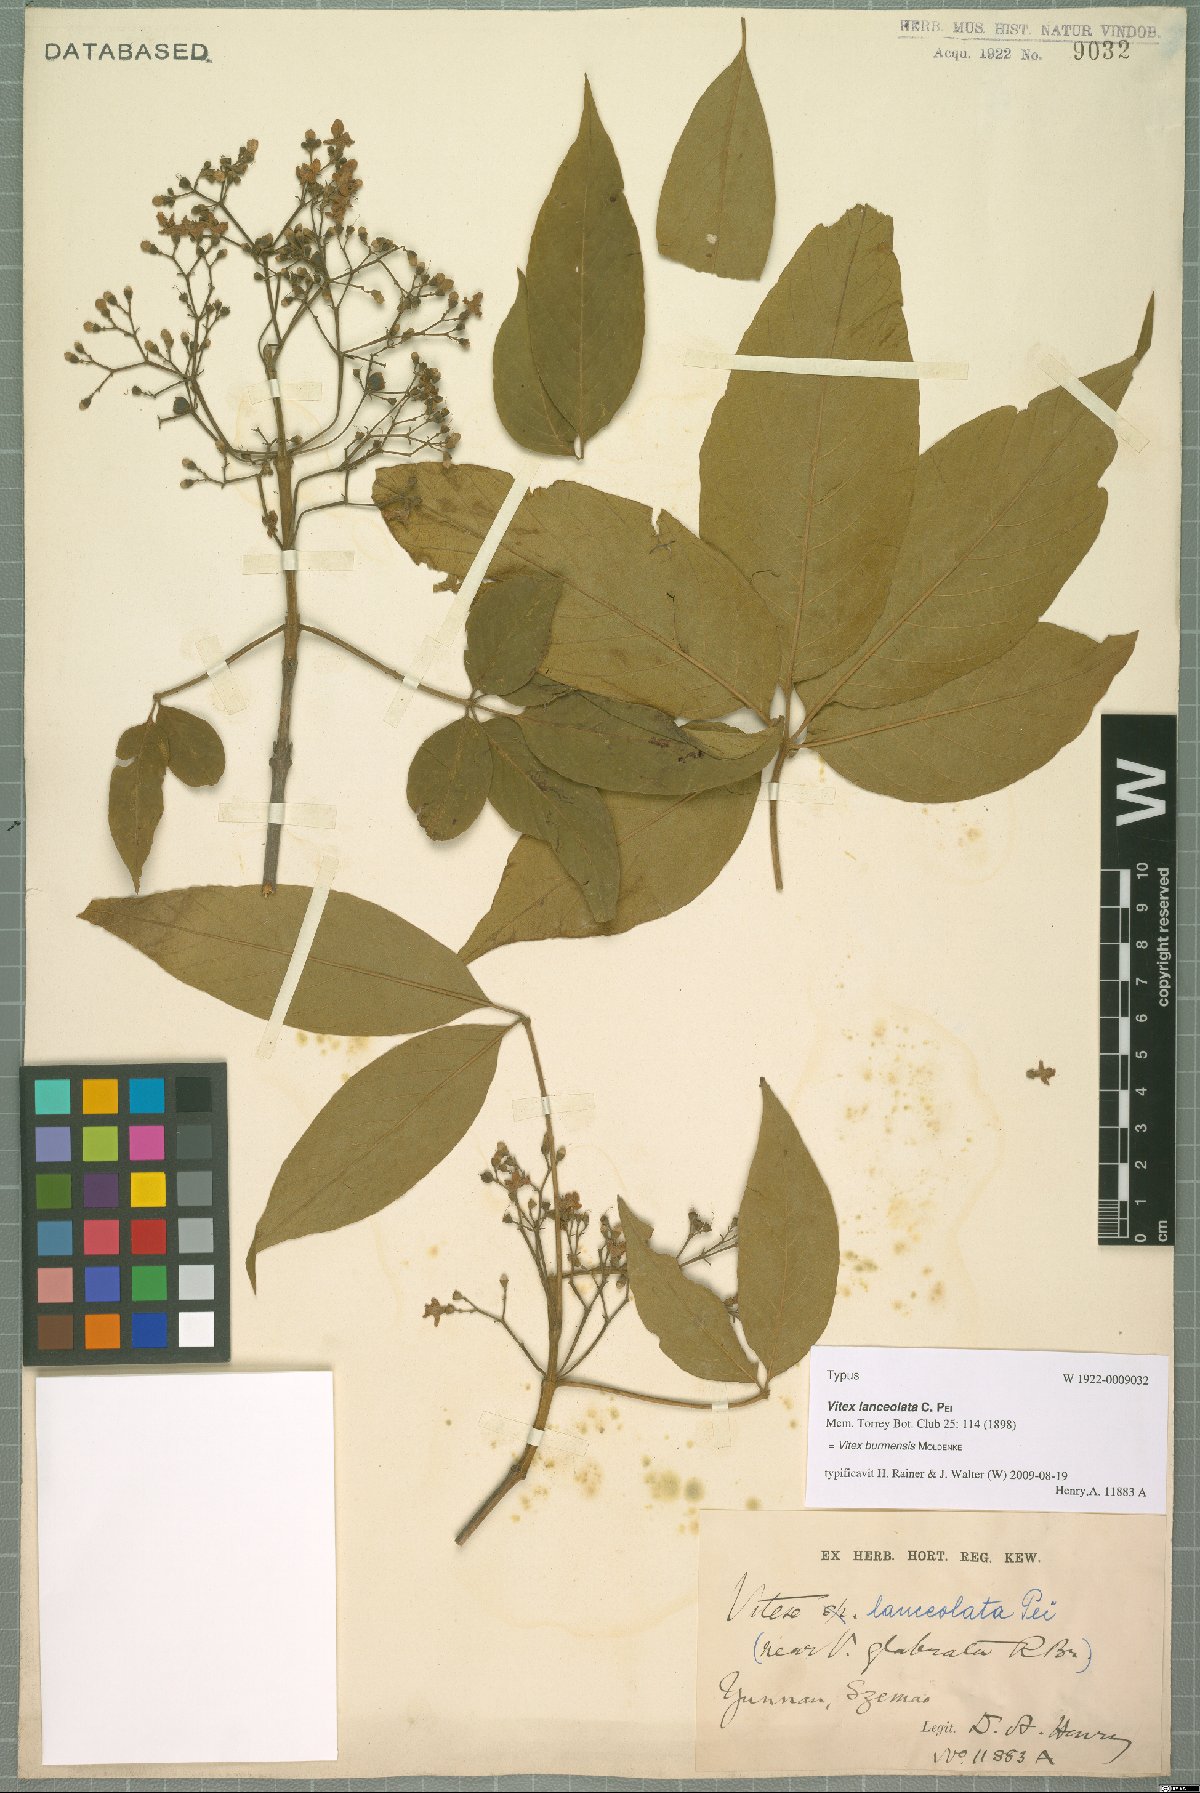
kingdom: Plantae
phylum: Tracheophyta
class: Magnoliopsida
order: Lamiales
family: Lamiaceae
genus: Vitex
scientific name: Vitex burmensis
